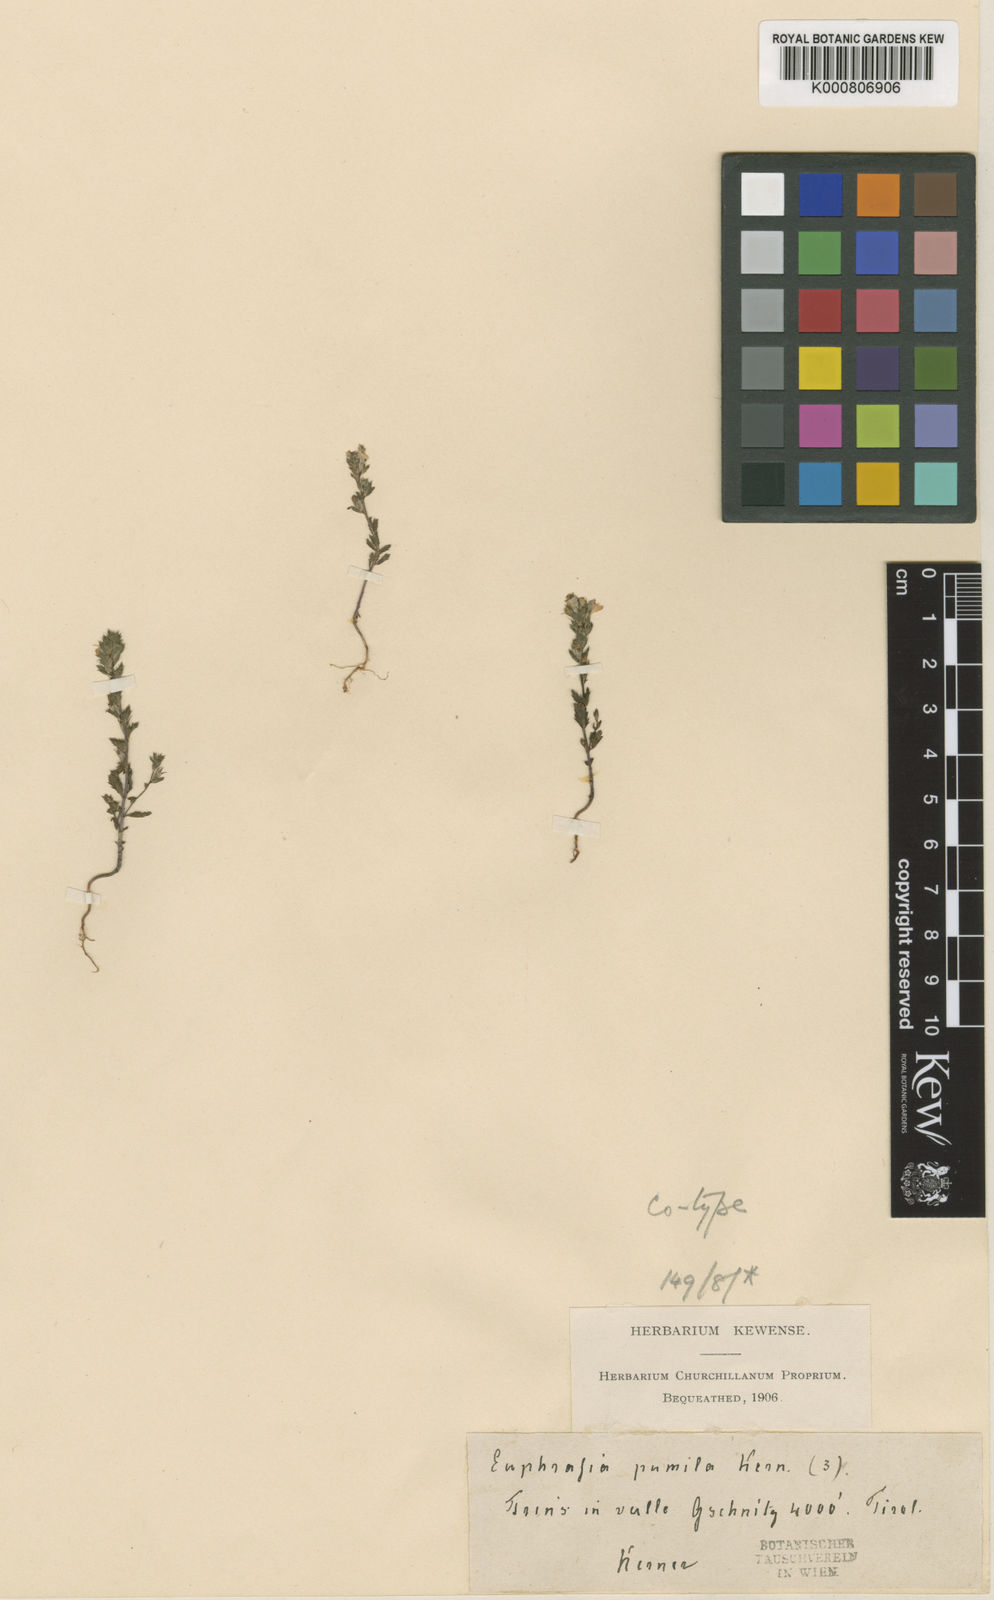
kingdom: Plantae
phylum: Tracheophyta
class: Magnoliopsida
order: Lamiales
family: Orobanchaceae
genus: Euphrasia
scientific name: Euphrasia
